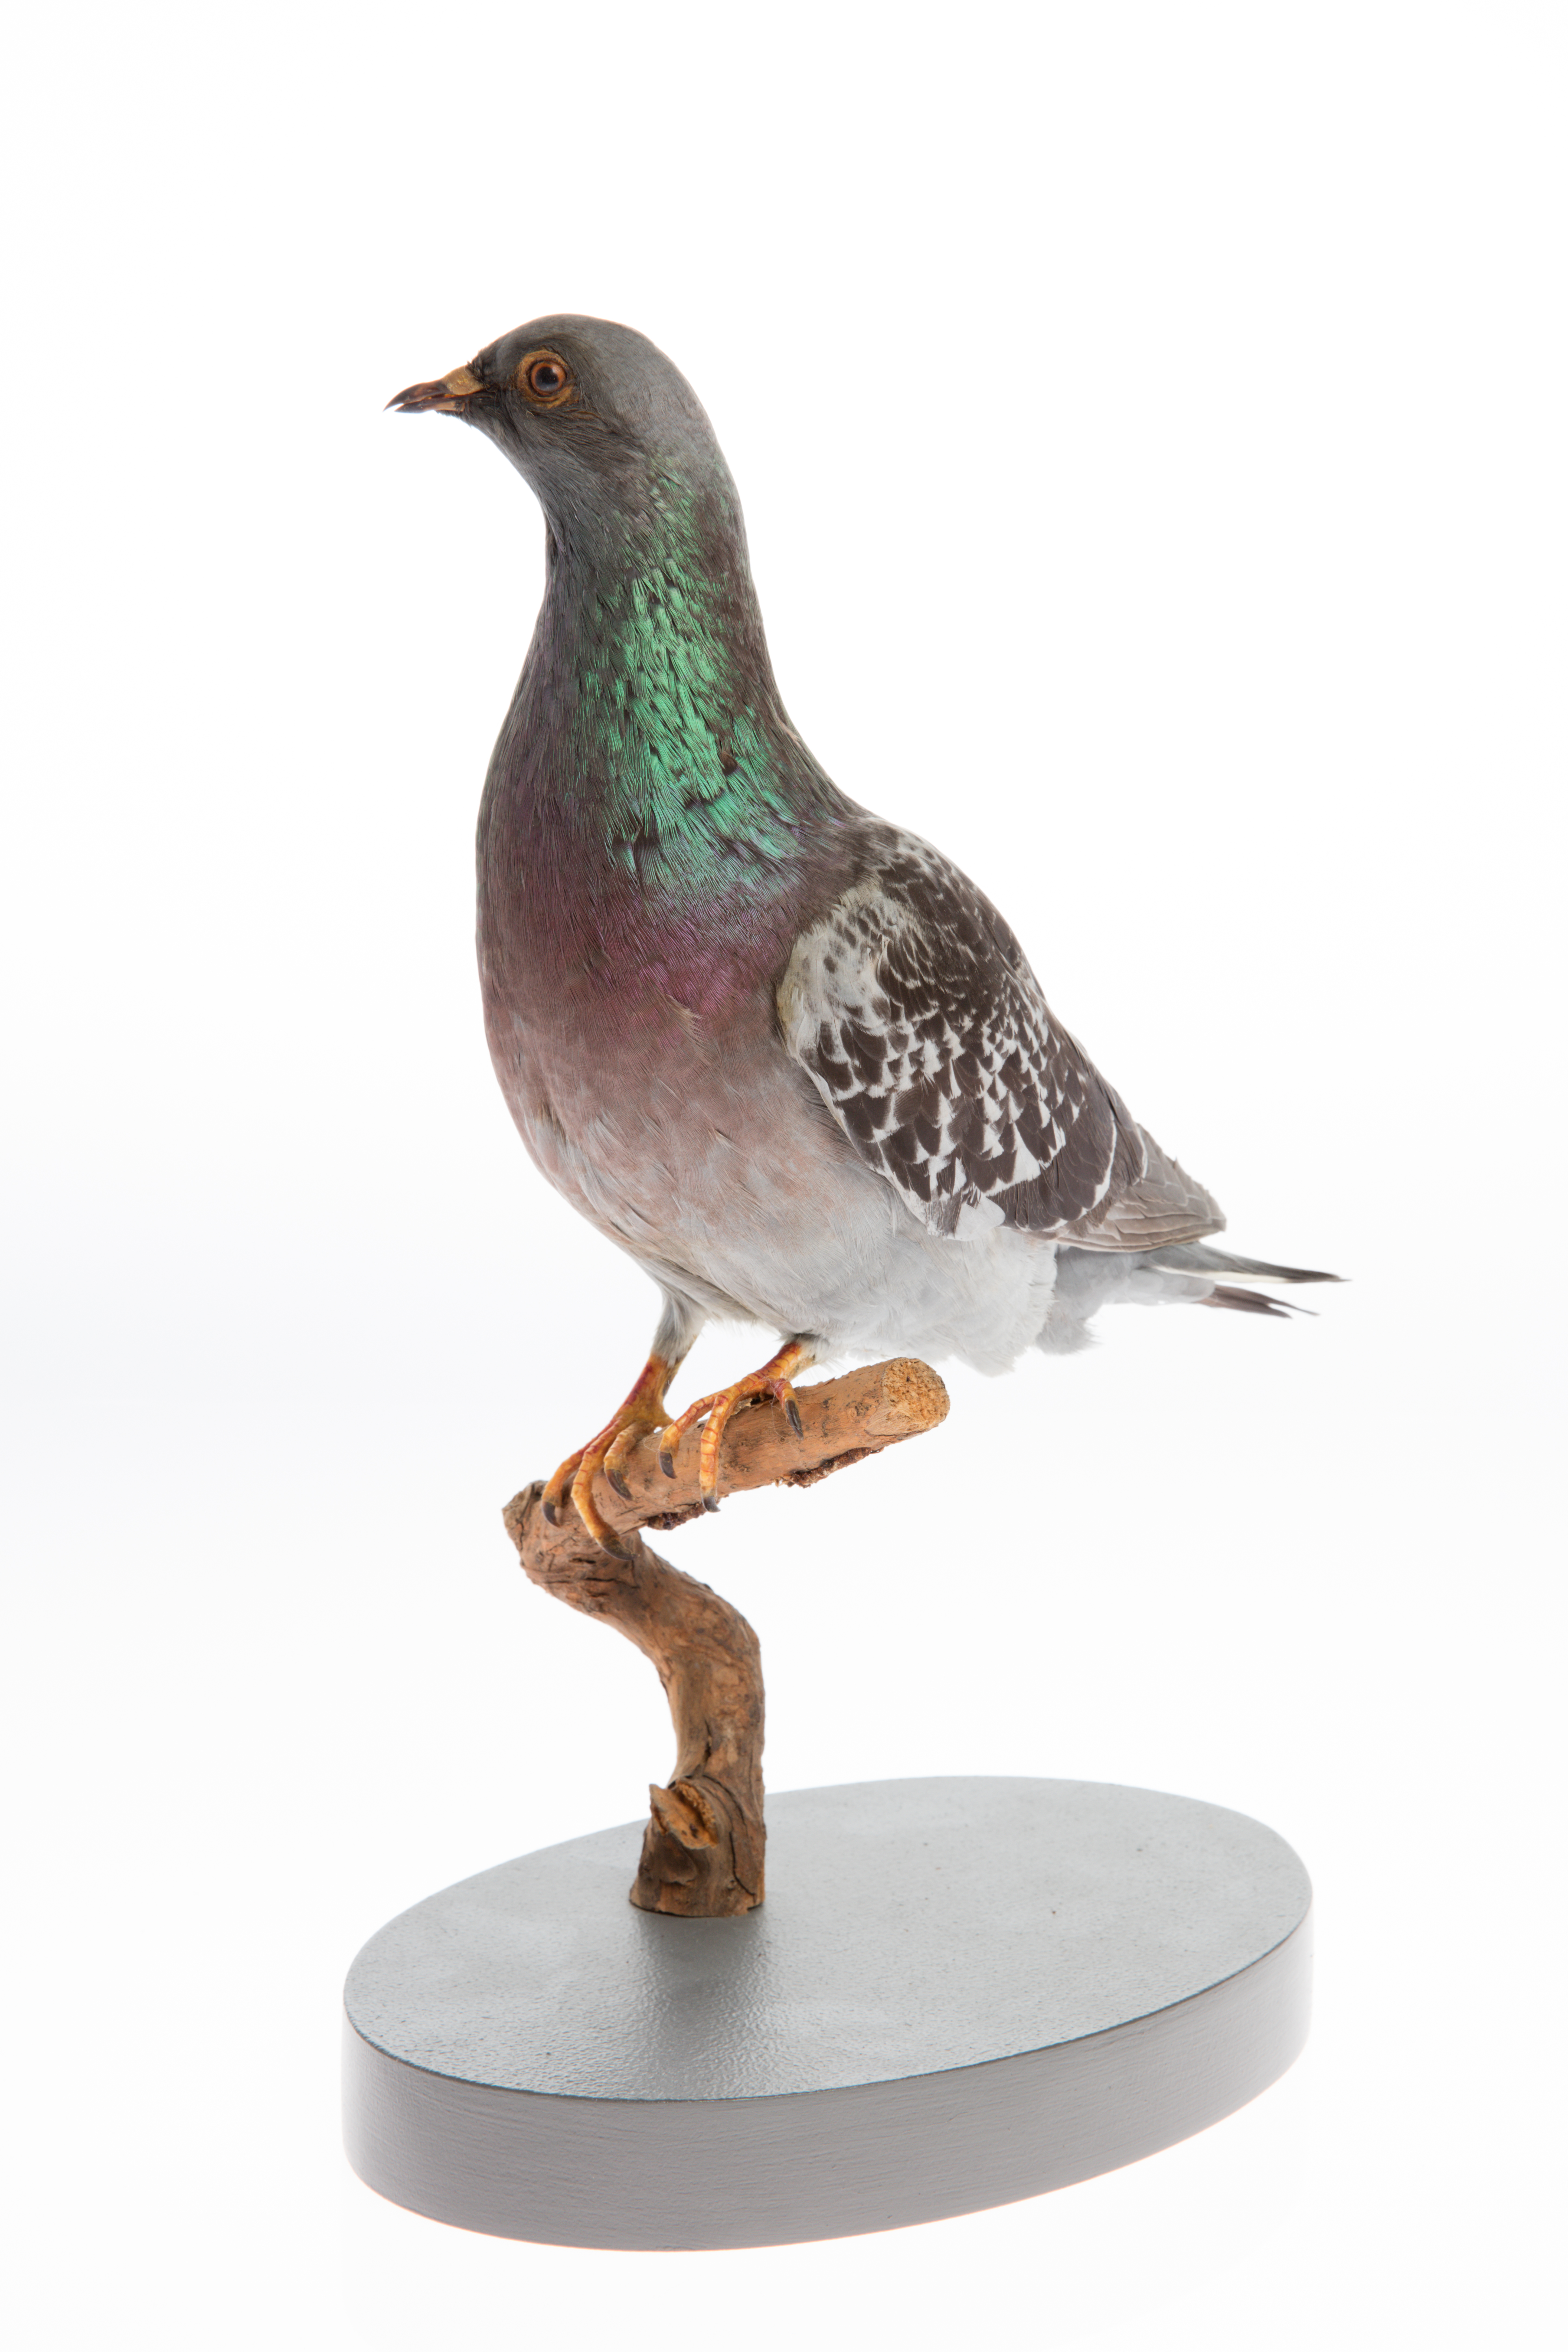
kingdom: Animalia
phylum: Chordata
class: Aves
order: Columbiformes
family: Columbidae
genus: Columba
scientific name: Columba livia
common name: Rock pigeon
